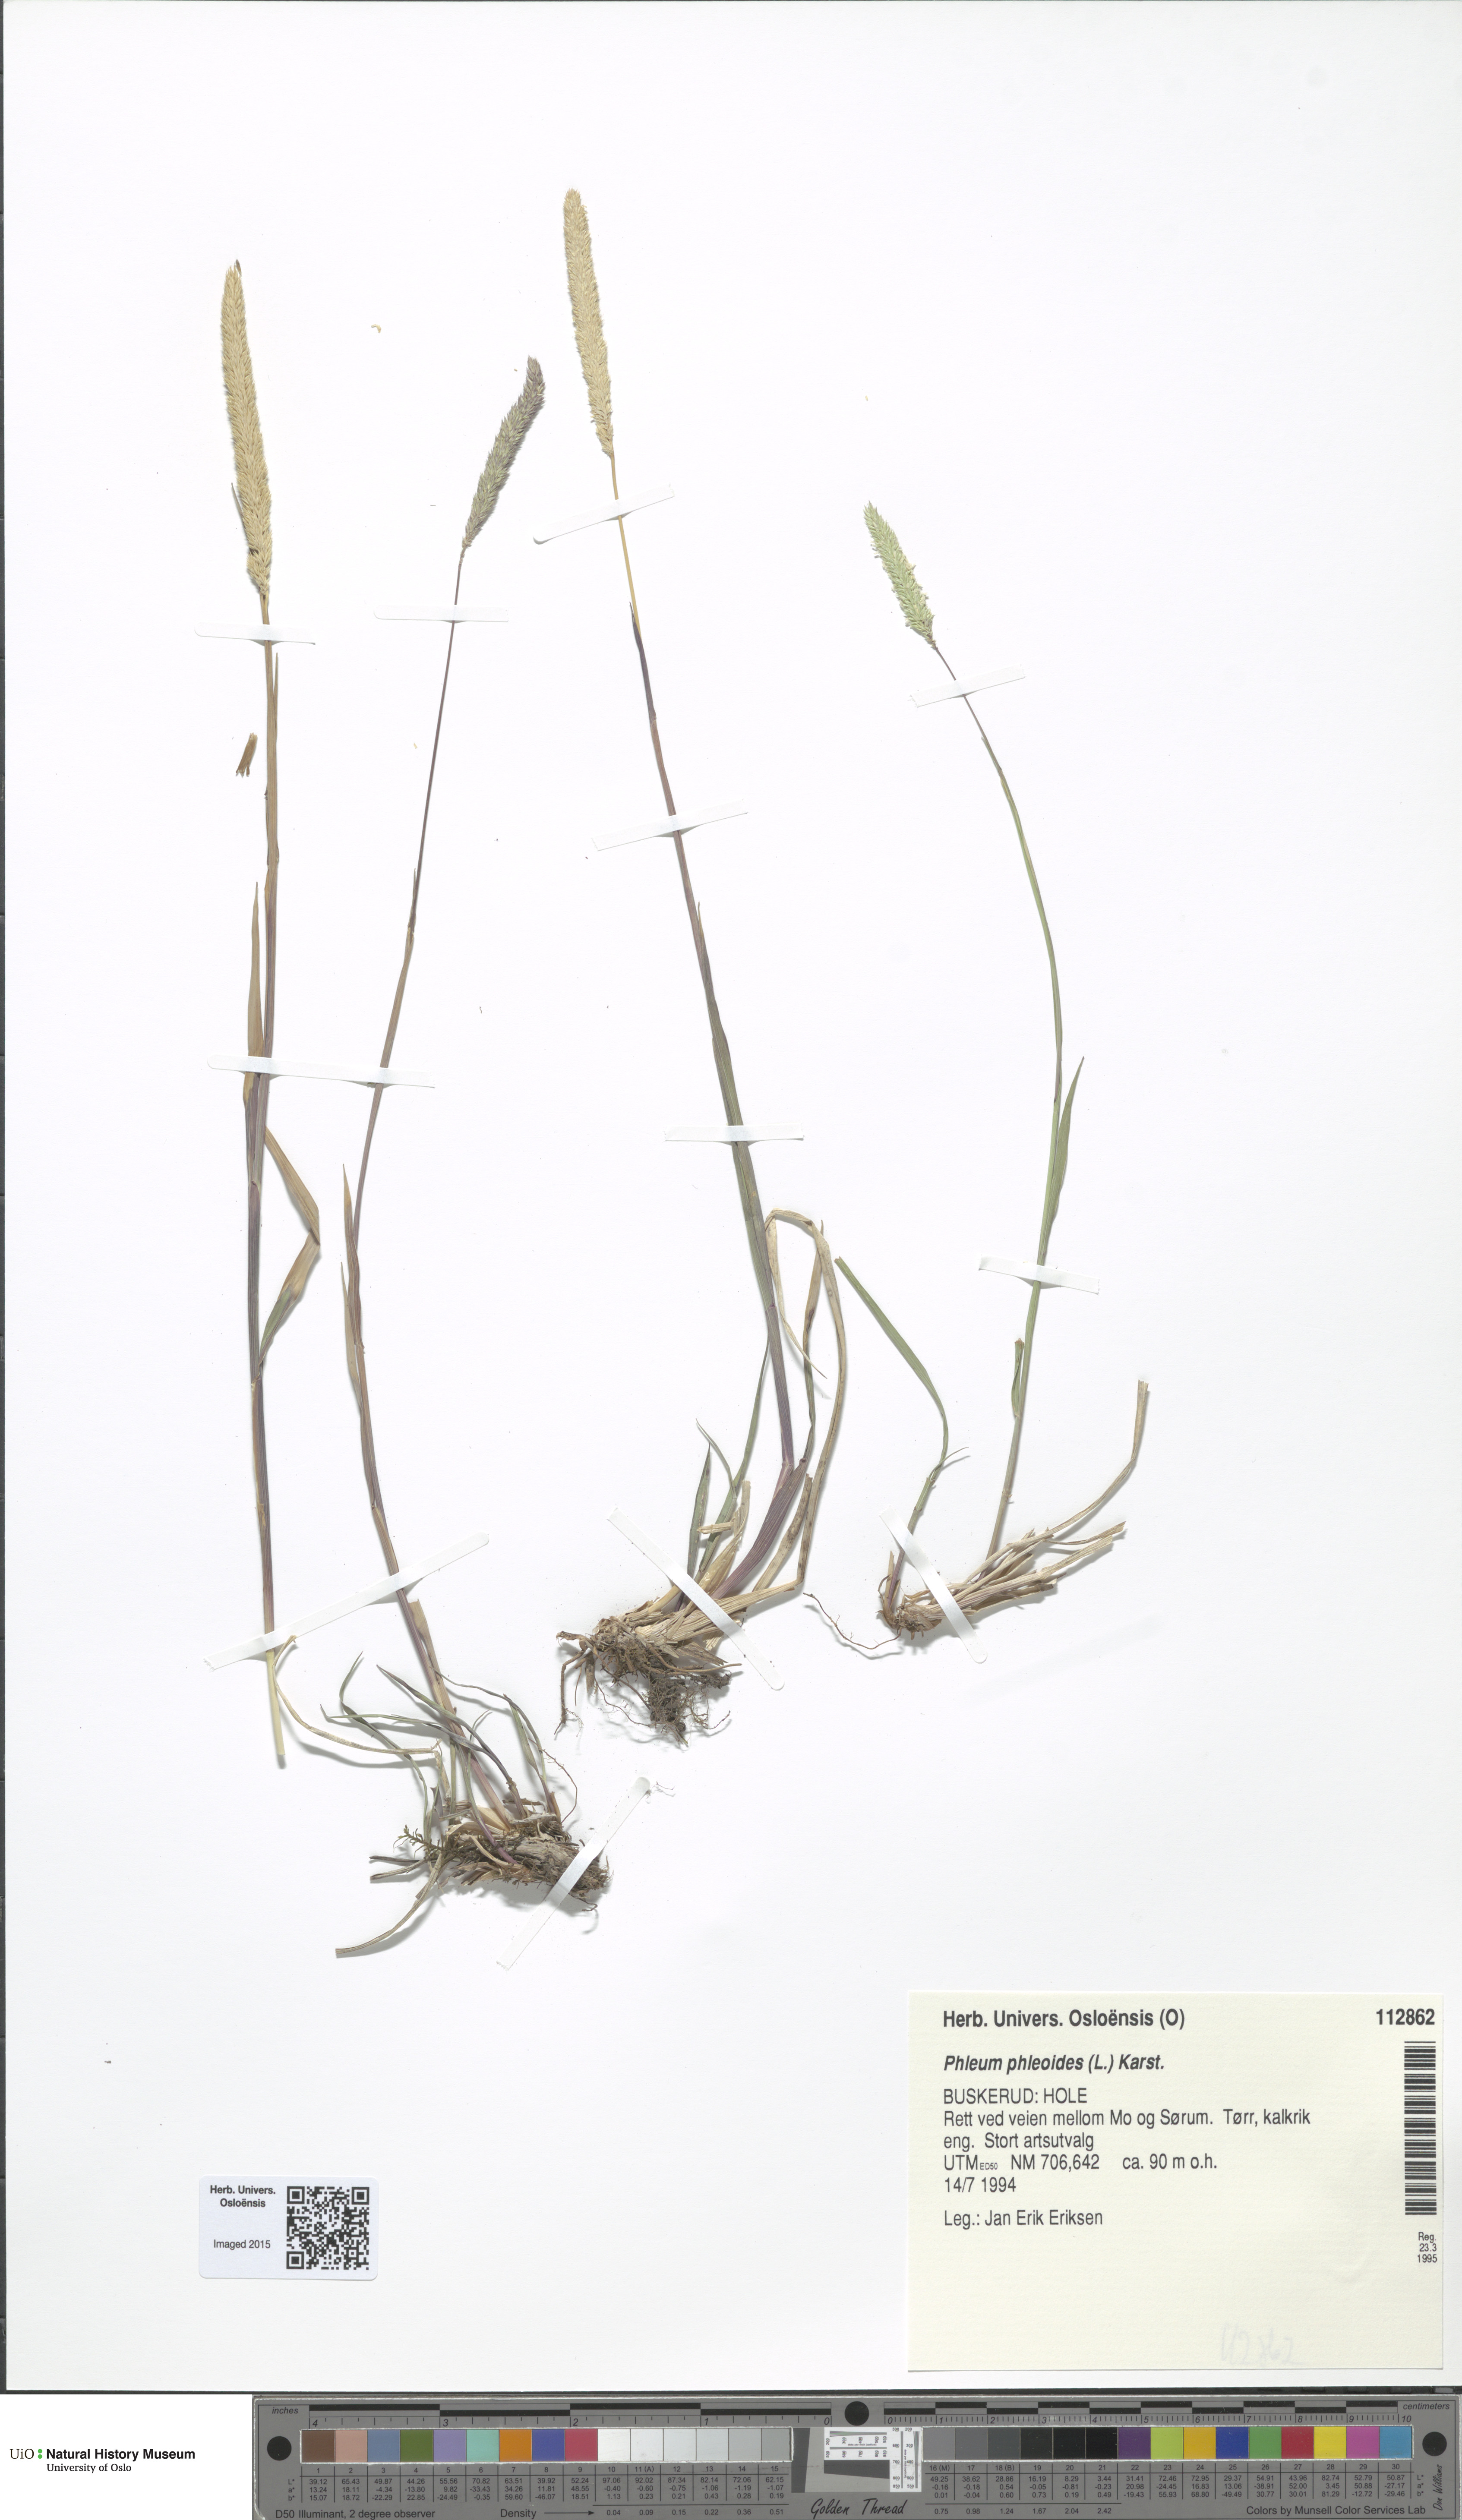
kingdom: Plantae
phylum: Tracheophyta
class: Liliopsida
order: Poales
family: Poaceae
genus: Phleum
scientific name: Phleum phleoides
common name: Purple-stem cat's-tail
